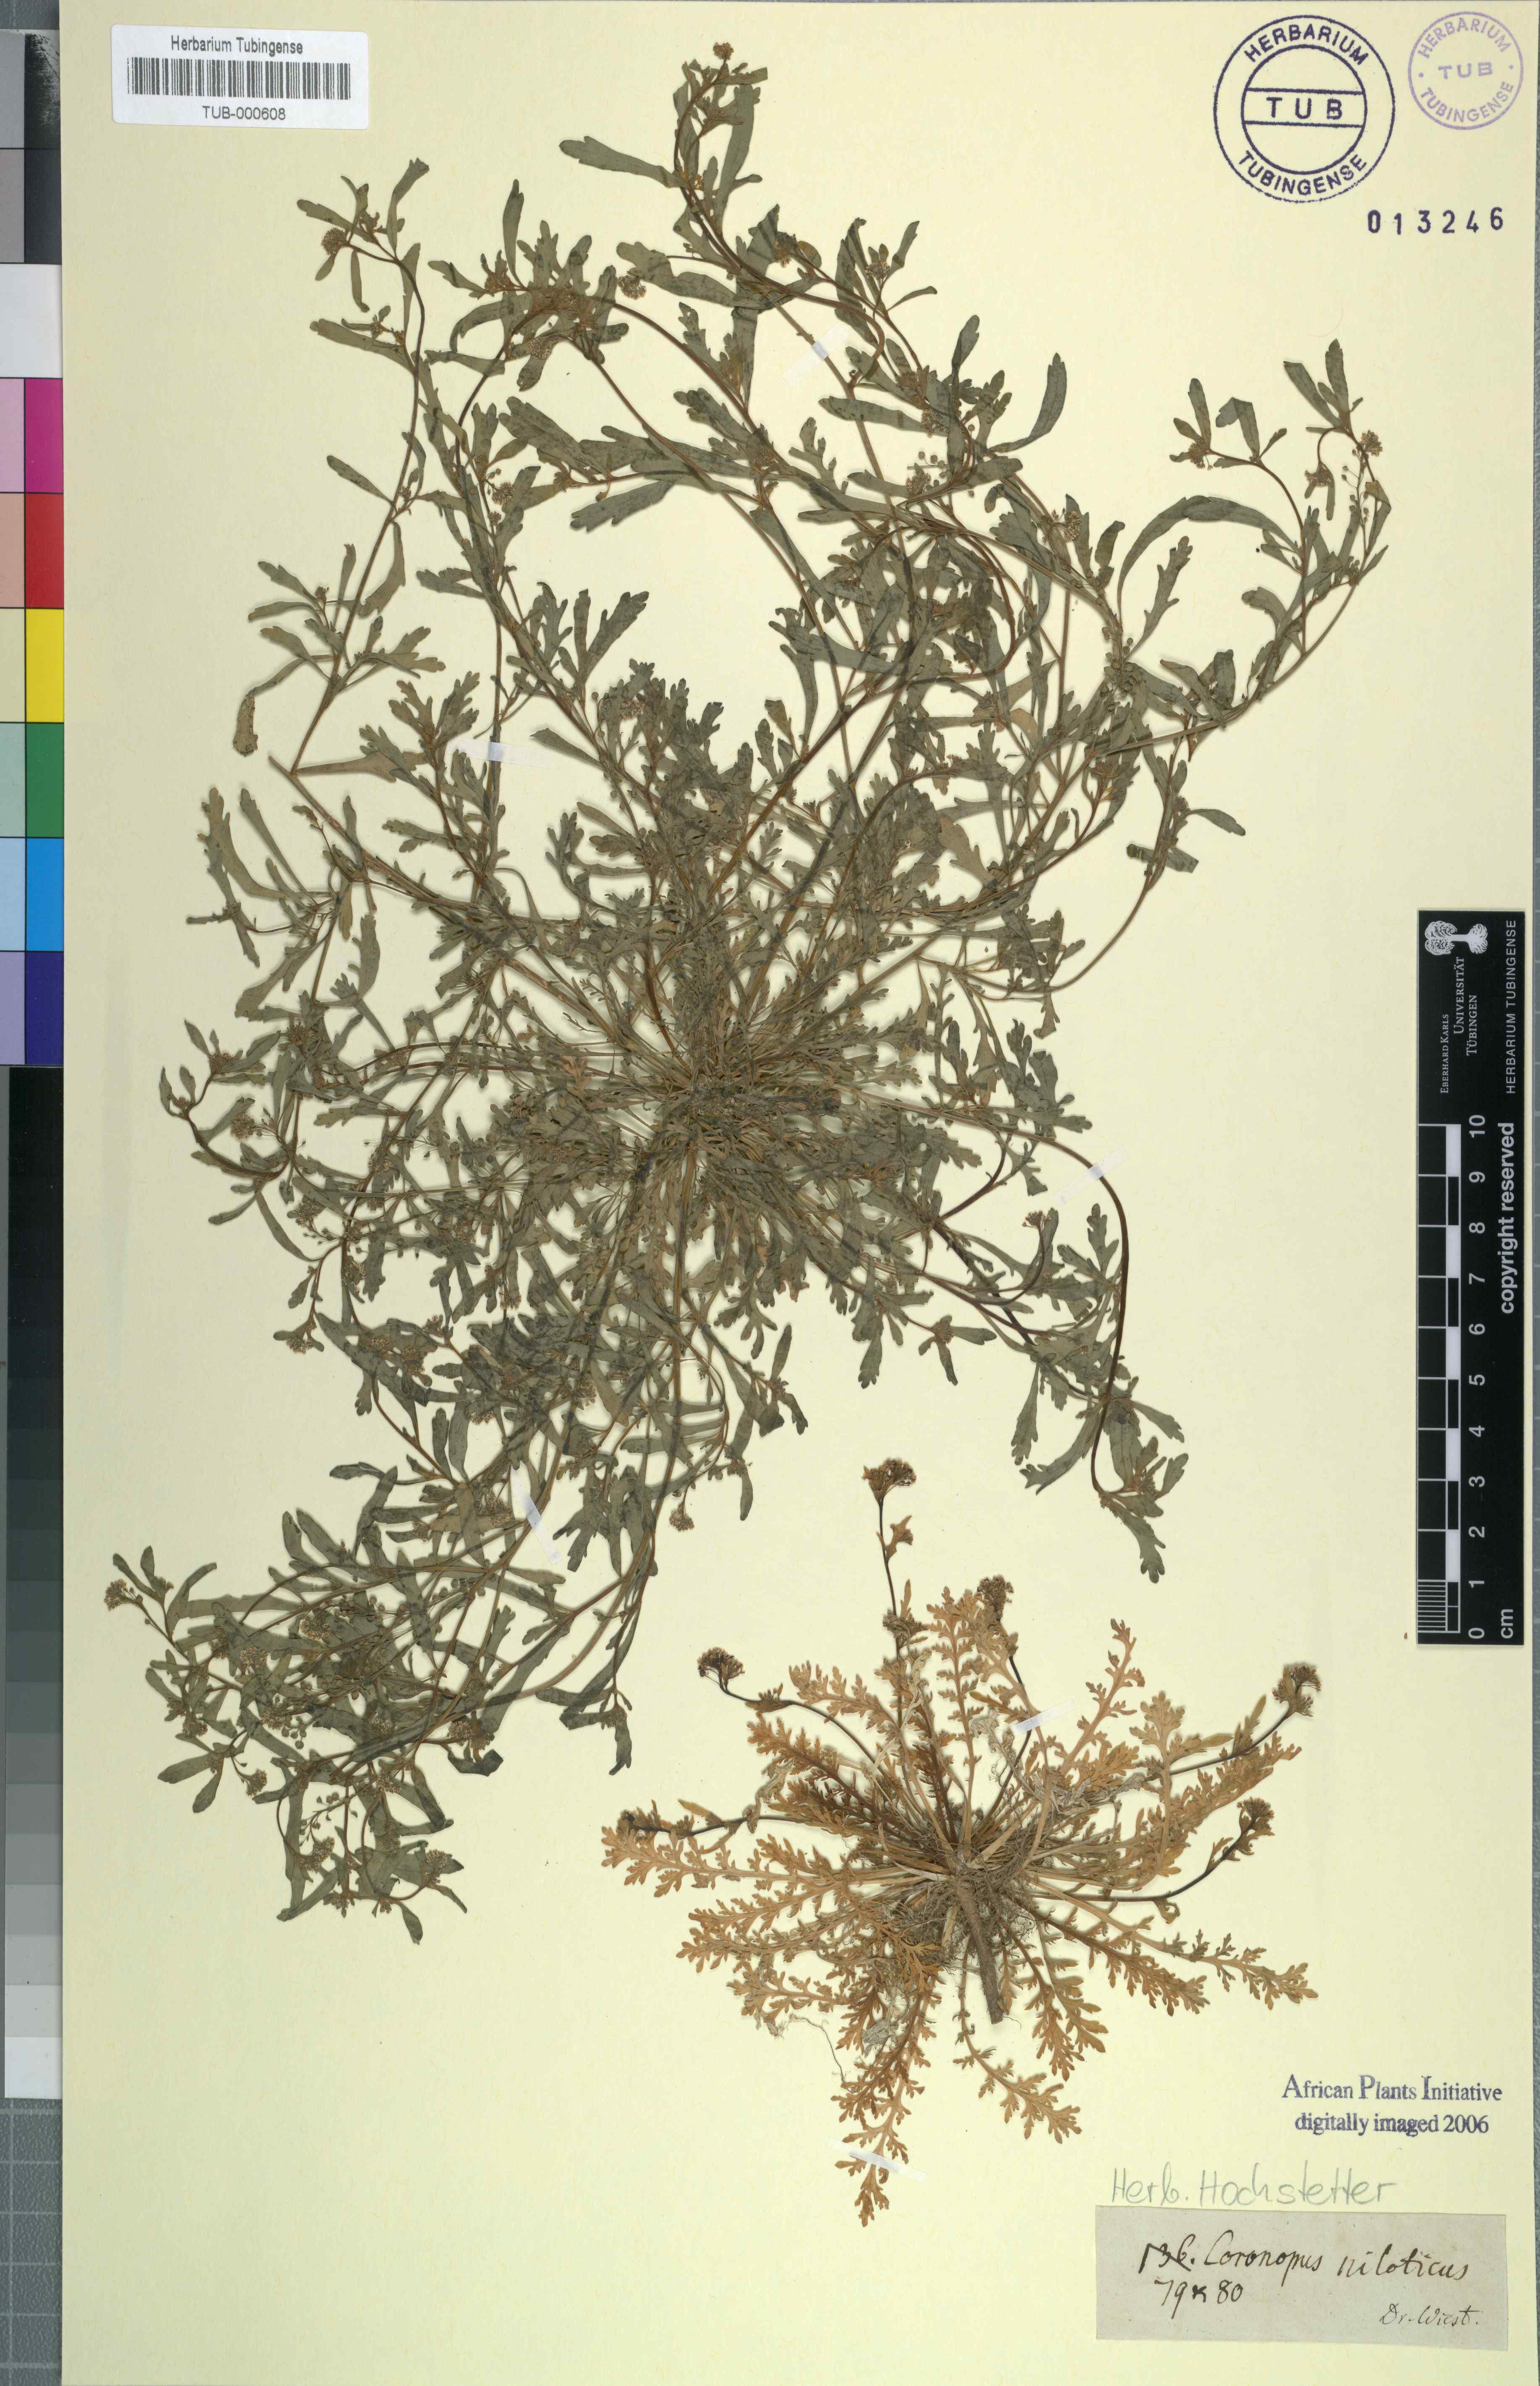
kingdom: Plantae
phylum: Tracheophyta
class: Magnoliopsida
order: Brassicales
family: Brassicaceae
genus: Lepidium
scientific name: Lepidium niloticum
